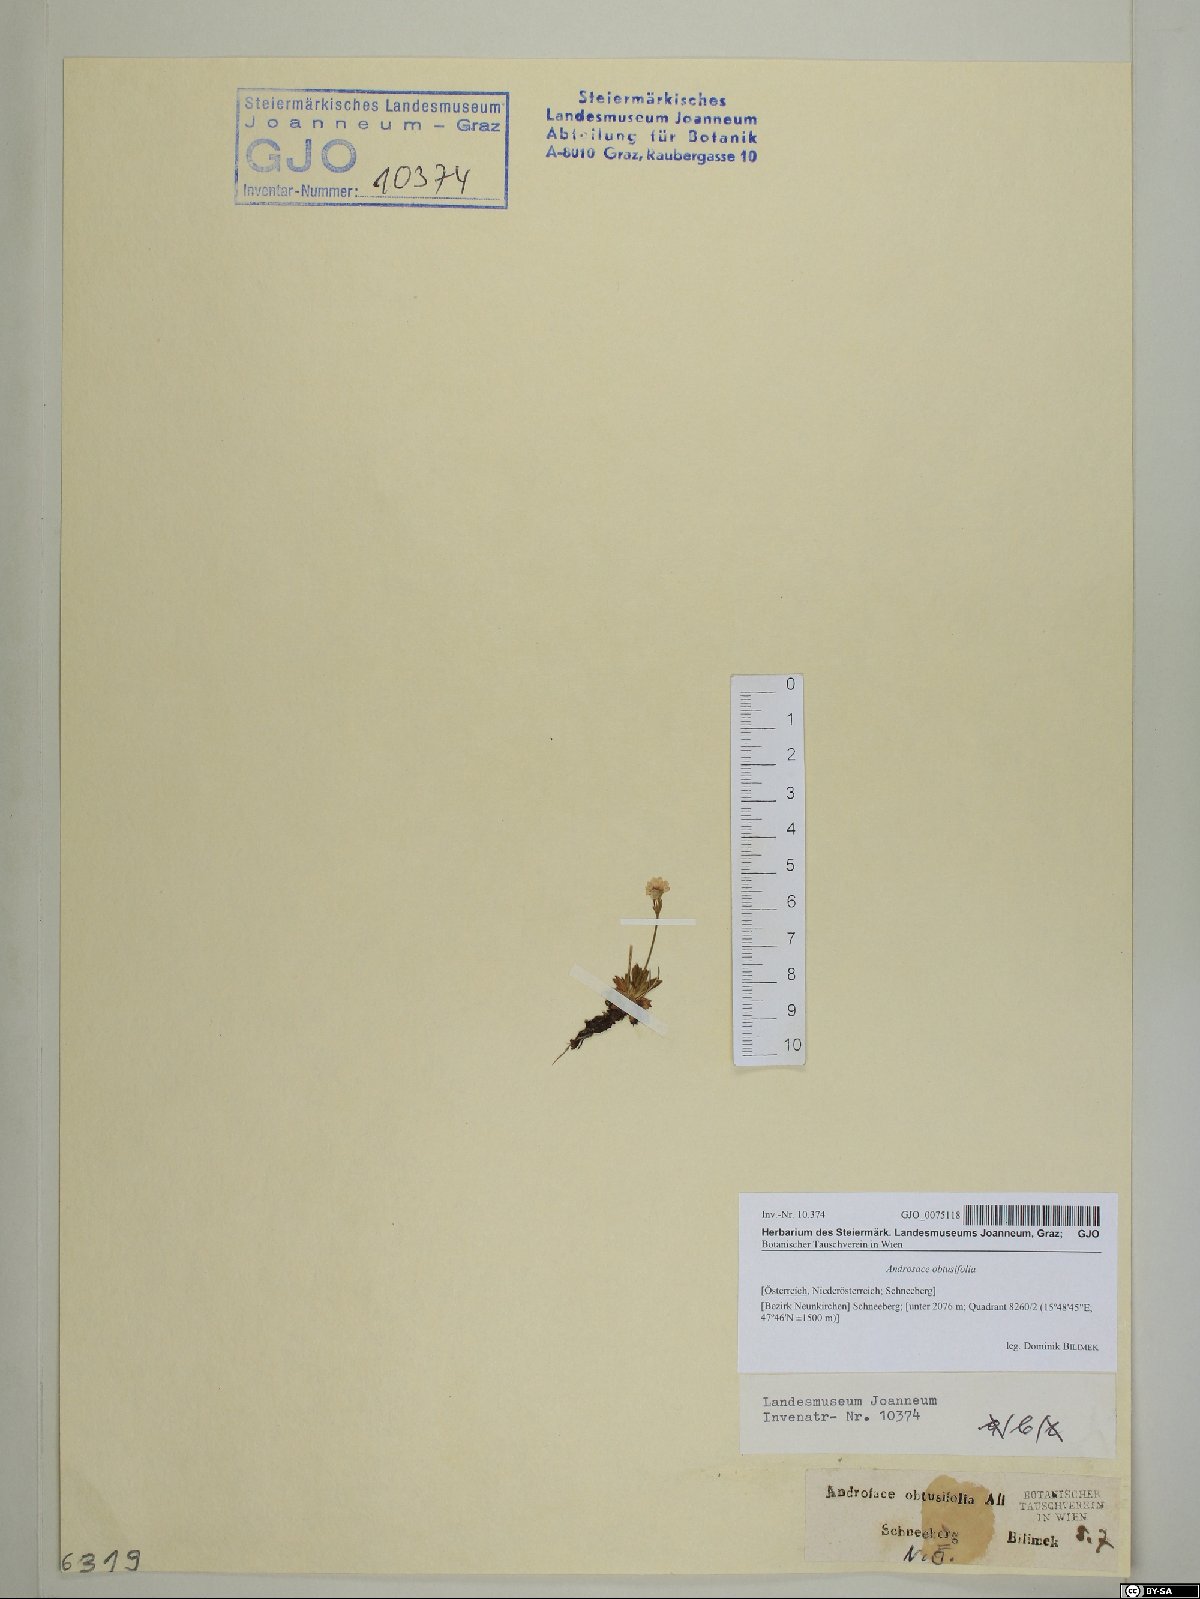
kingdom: Plantae
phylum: Tracheophyta
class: Magnoliopsida
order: Ericales
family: Primulaceae
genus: Androsace
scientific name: Androsace obtusifolia
